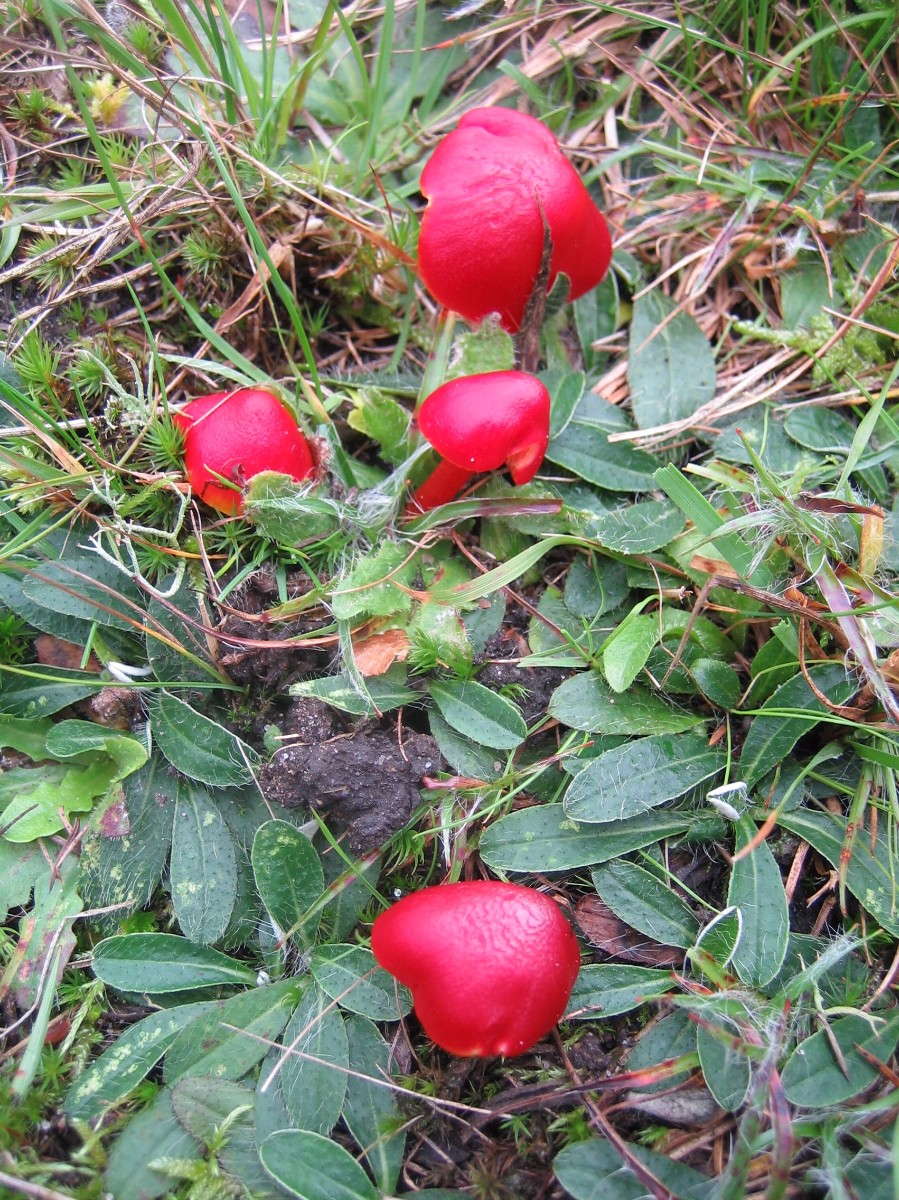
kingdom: Fungi
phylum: Basidiomycota
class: Agaricomycetes
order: Agaricales
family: Hygrophoraceae
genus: Hygrocybe
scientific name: Hygrocybe splendidissima
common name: knaldrød vokshat
